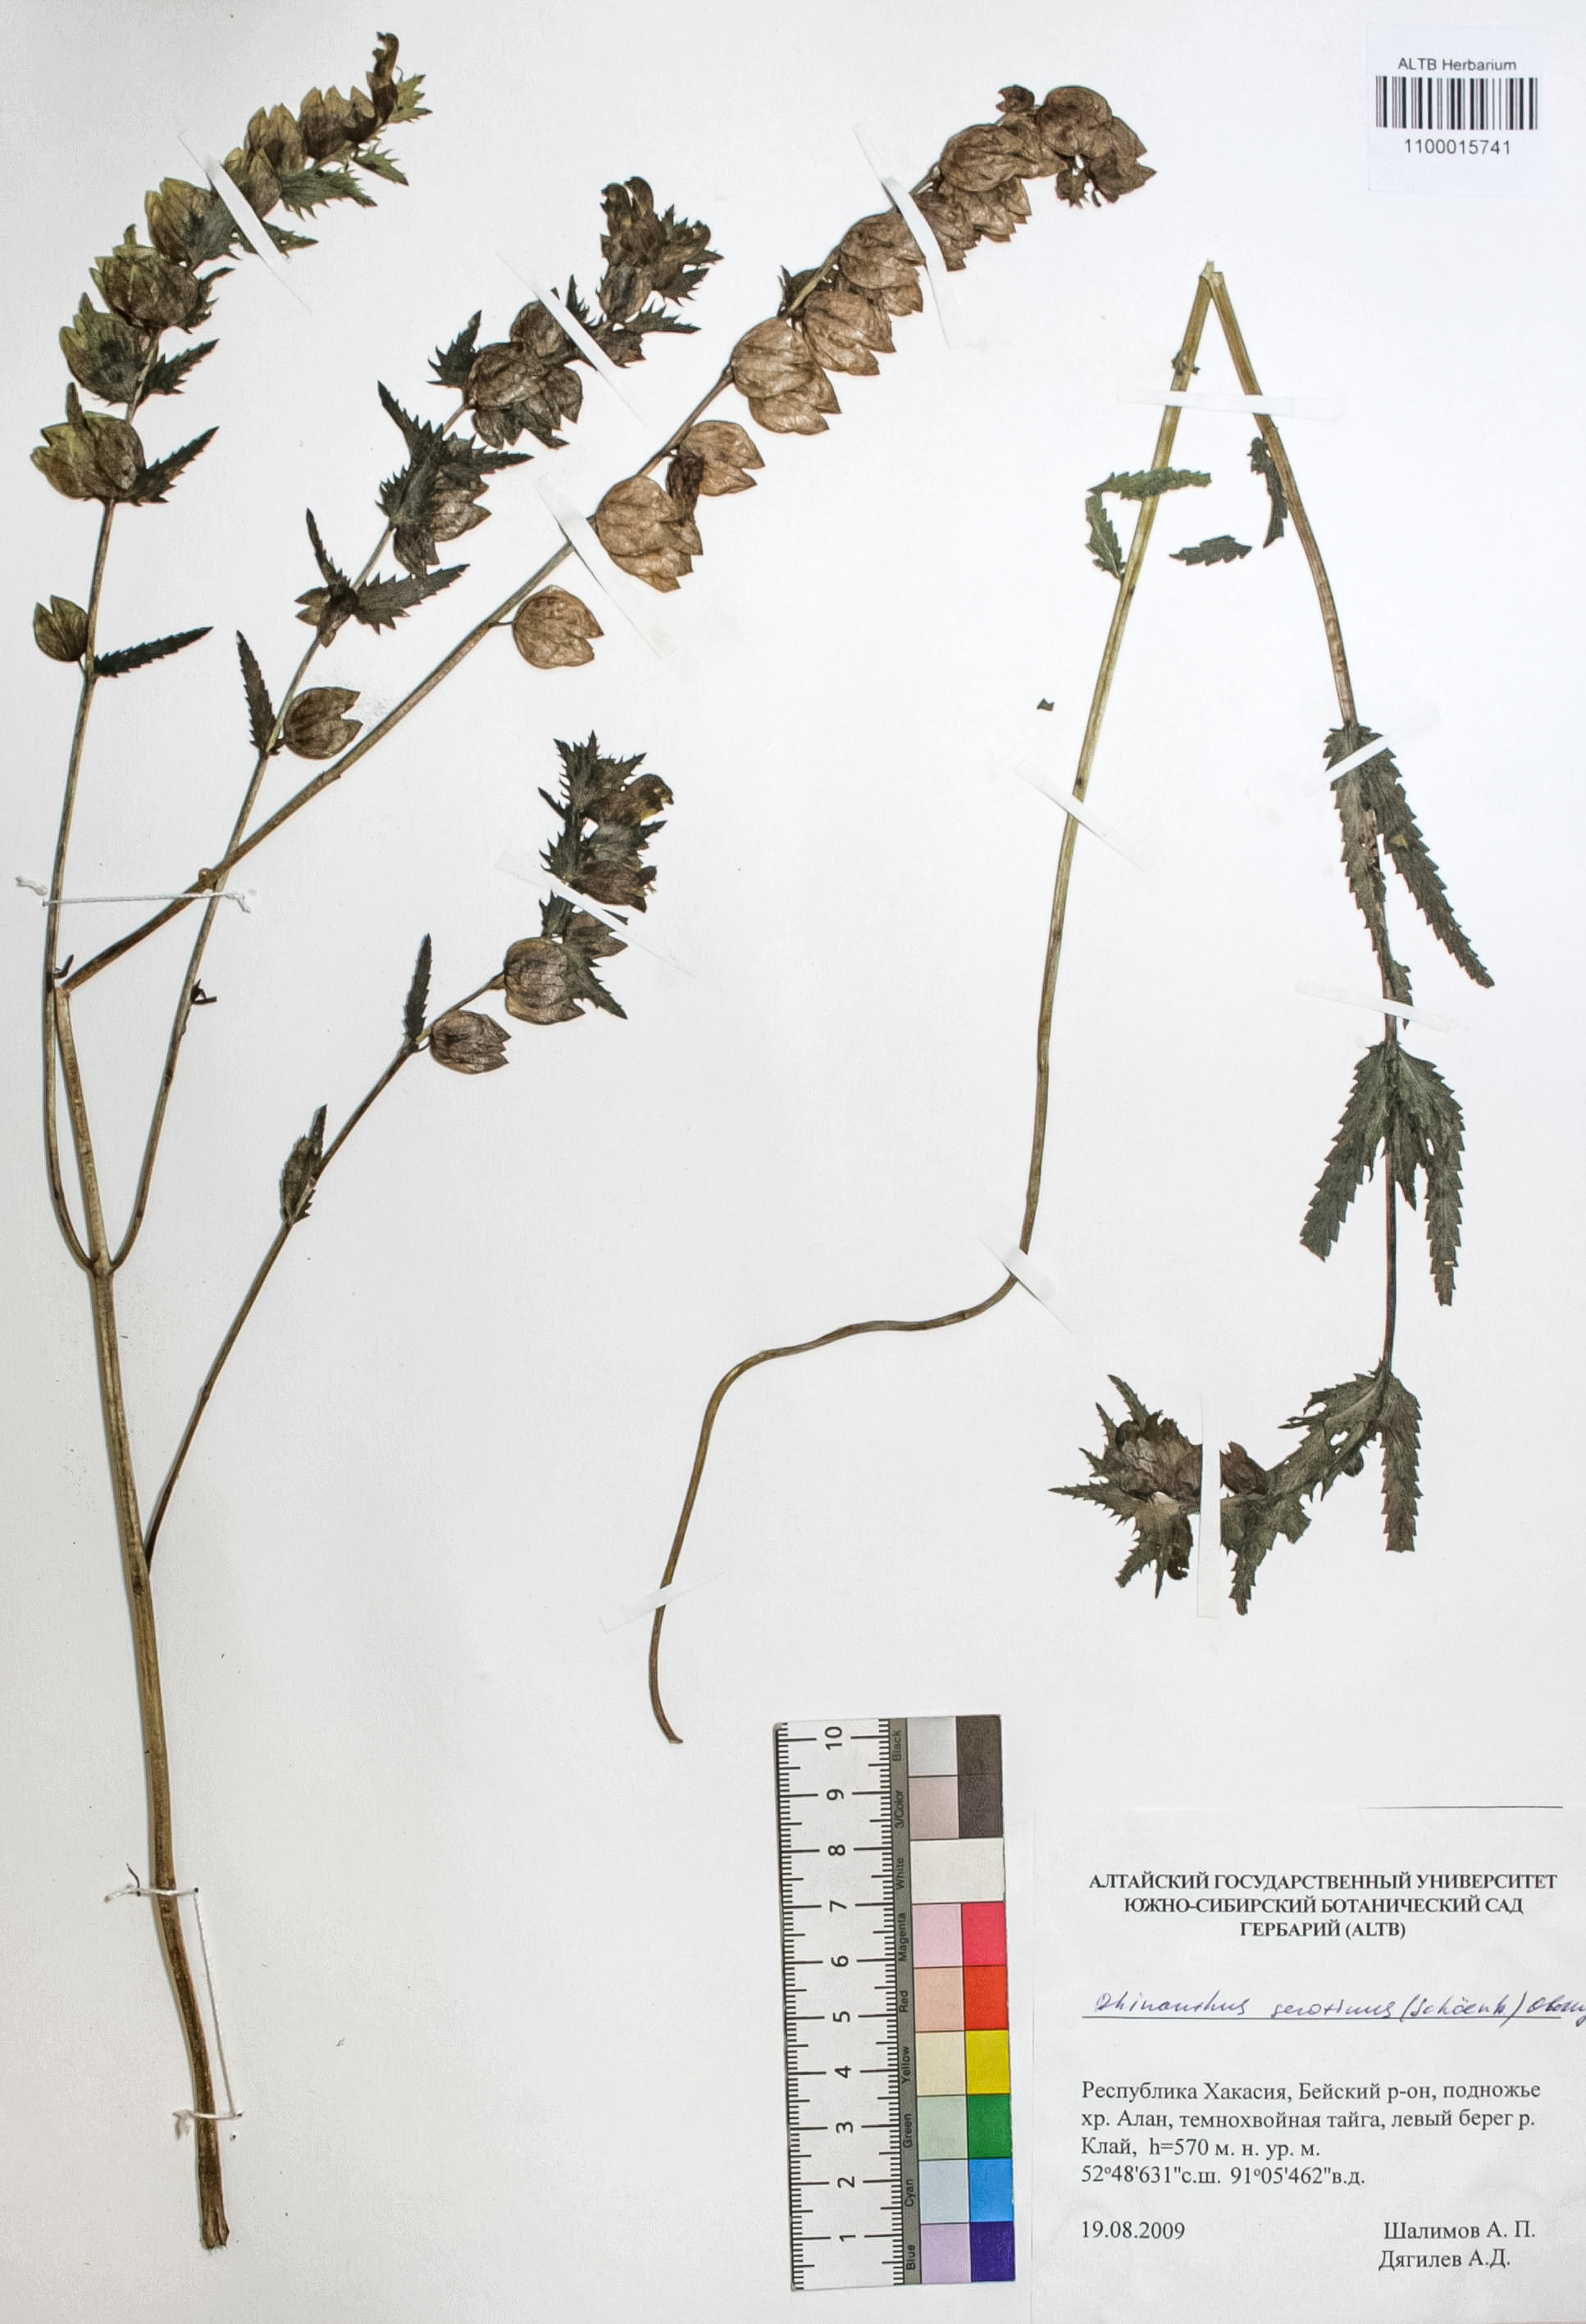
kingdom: Plantae
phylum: Tracheophyta
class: Magnoliopsida
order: Lamiales
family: Orobanchaceae
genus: Rhinanthus
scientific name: Rhinanthus serotinus
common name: Late-flowering yellow rattle
